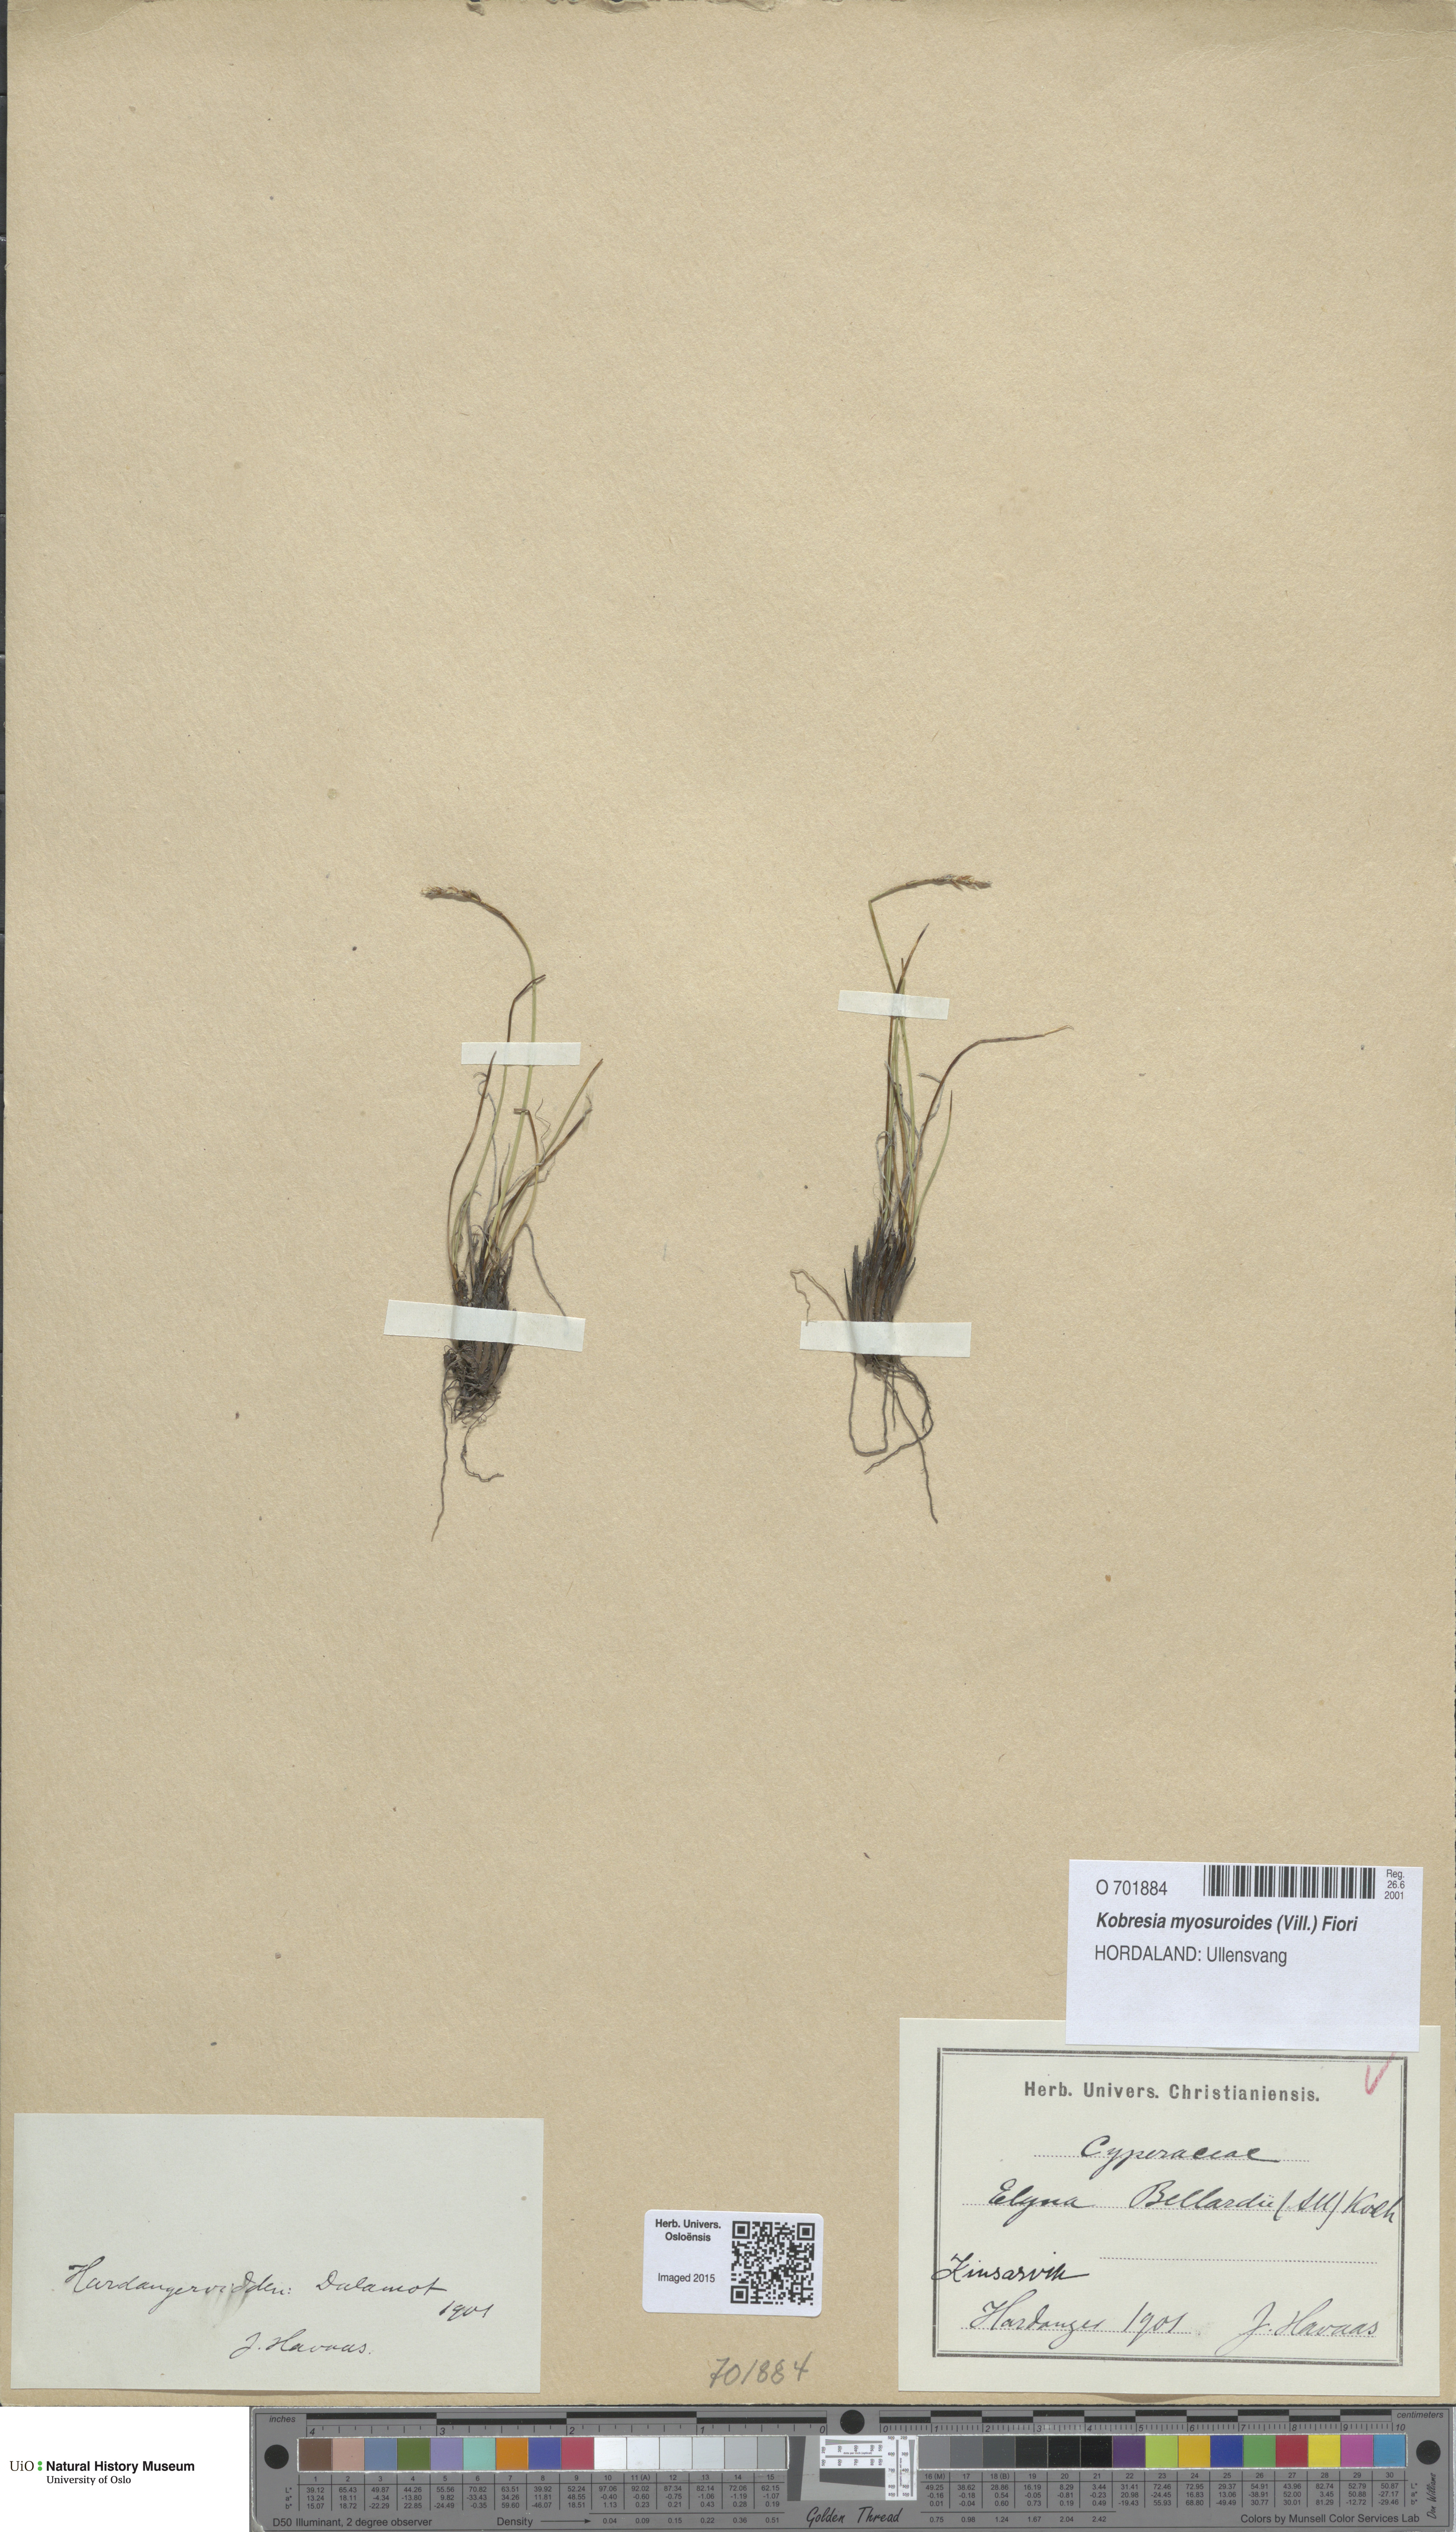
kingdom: Plantae
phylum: Tracheophyta
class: Liliopsida
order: Poales
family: Cyperaceae
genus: Carex
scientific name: Carex myosuroides
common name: Bellard's bog sedge
